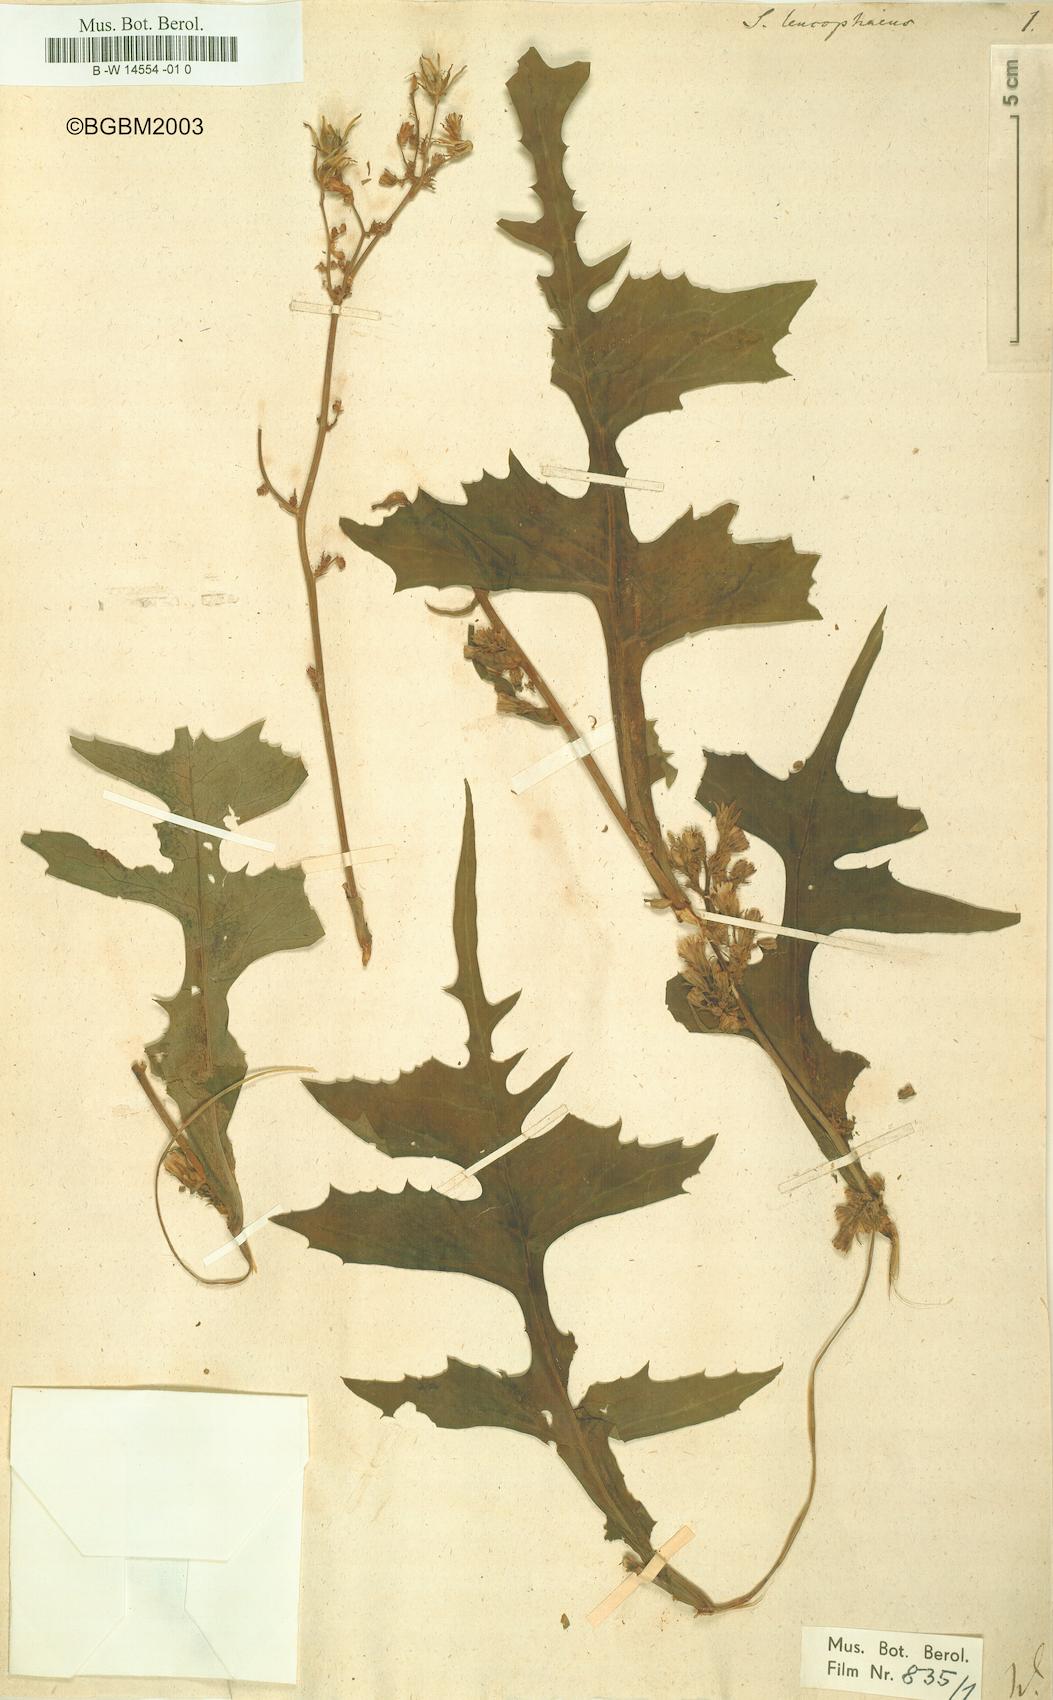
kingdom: Plantae
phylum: Tracheophyta
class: Magnoliopsida
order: Asterales
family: Asteraceae
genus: Cicerbita
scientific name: Cicerbita alpina
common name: Alpine blue-sow-thistle
